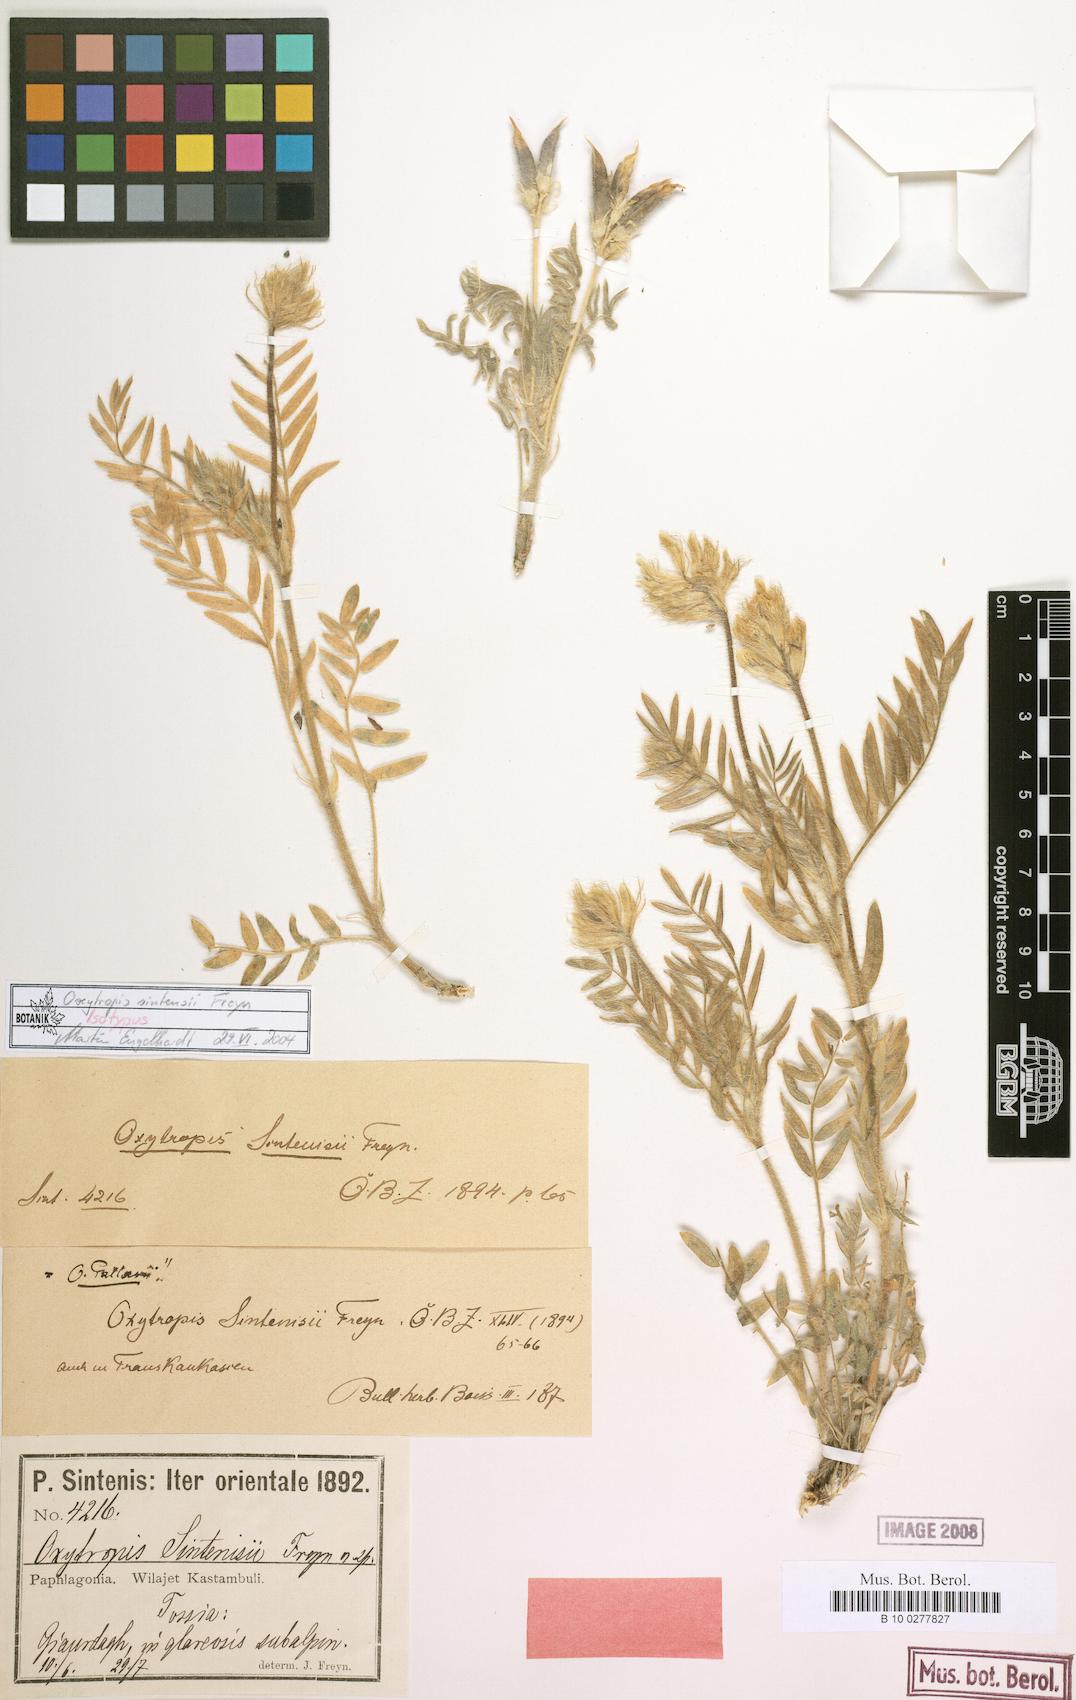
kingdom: Plantae
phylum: Tracheophyta
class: Magnoliopsida
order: Fabales
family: Fabaceae
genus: Oxytropis
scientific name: Oxytropis pallasii
